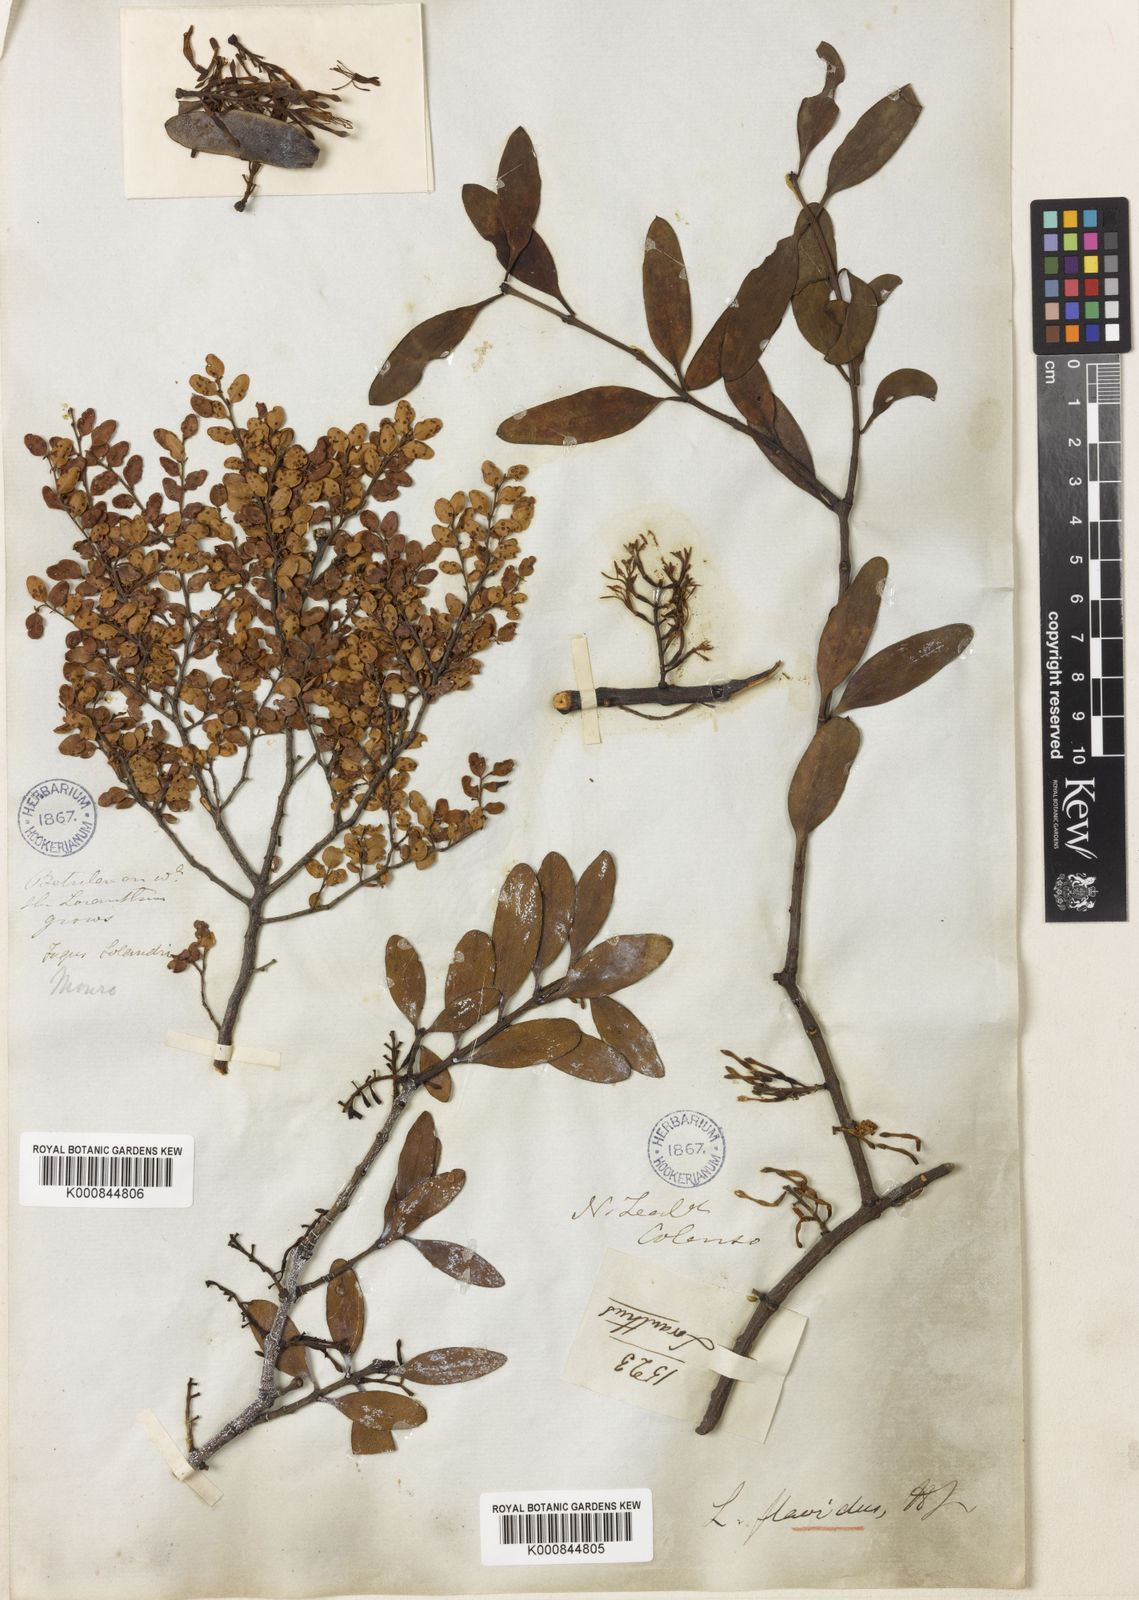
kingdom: Plantae
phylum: Tracheophyta
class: Magnoliopsida
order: Santalales
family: Loranthaceae
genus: Alepis
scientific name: Alepis flavida
